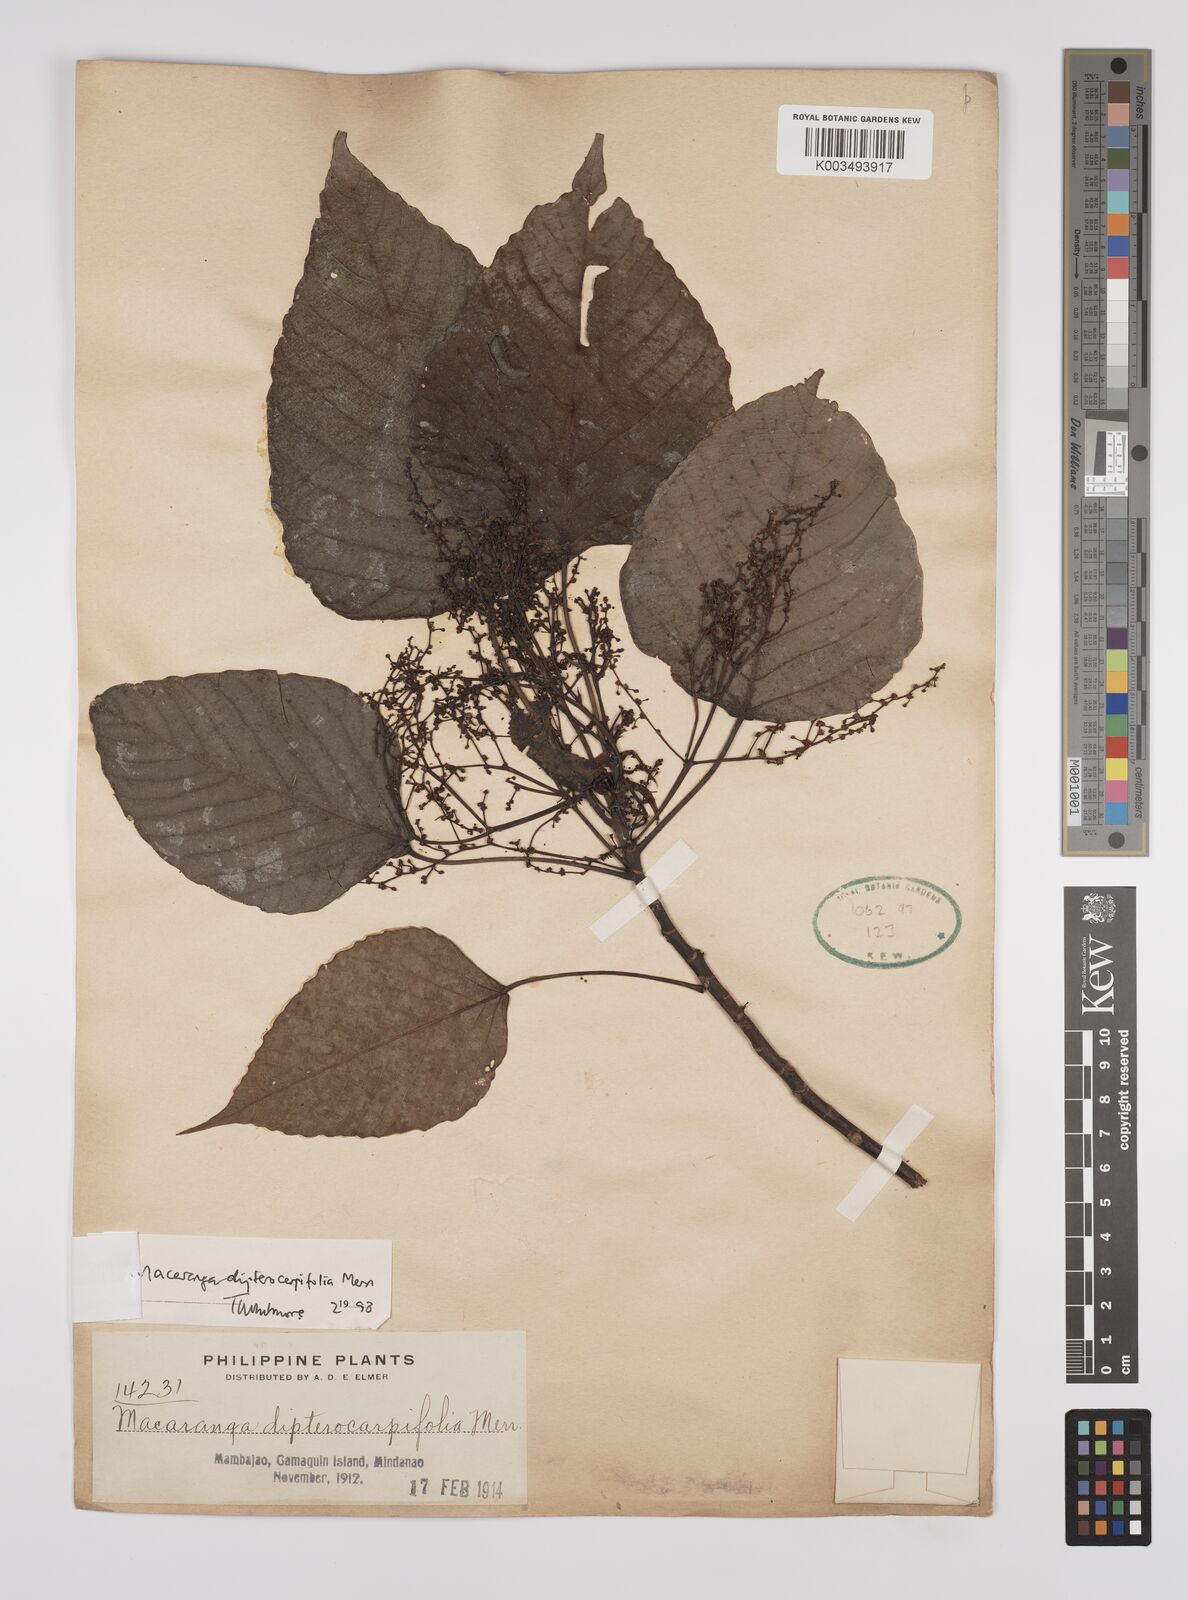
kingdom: Plantae
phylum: Tracheophyta
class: Magnoliopsida
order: Malpighiales
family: Euphorbiaceae
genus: Macaranga
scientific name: Macaranga sinensis
